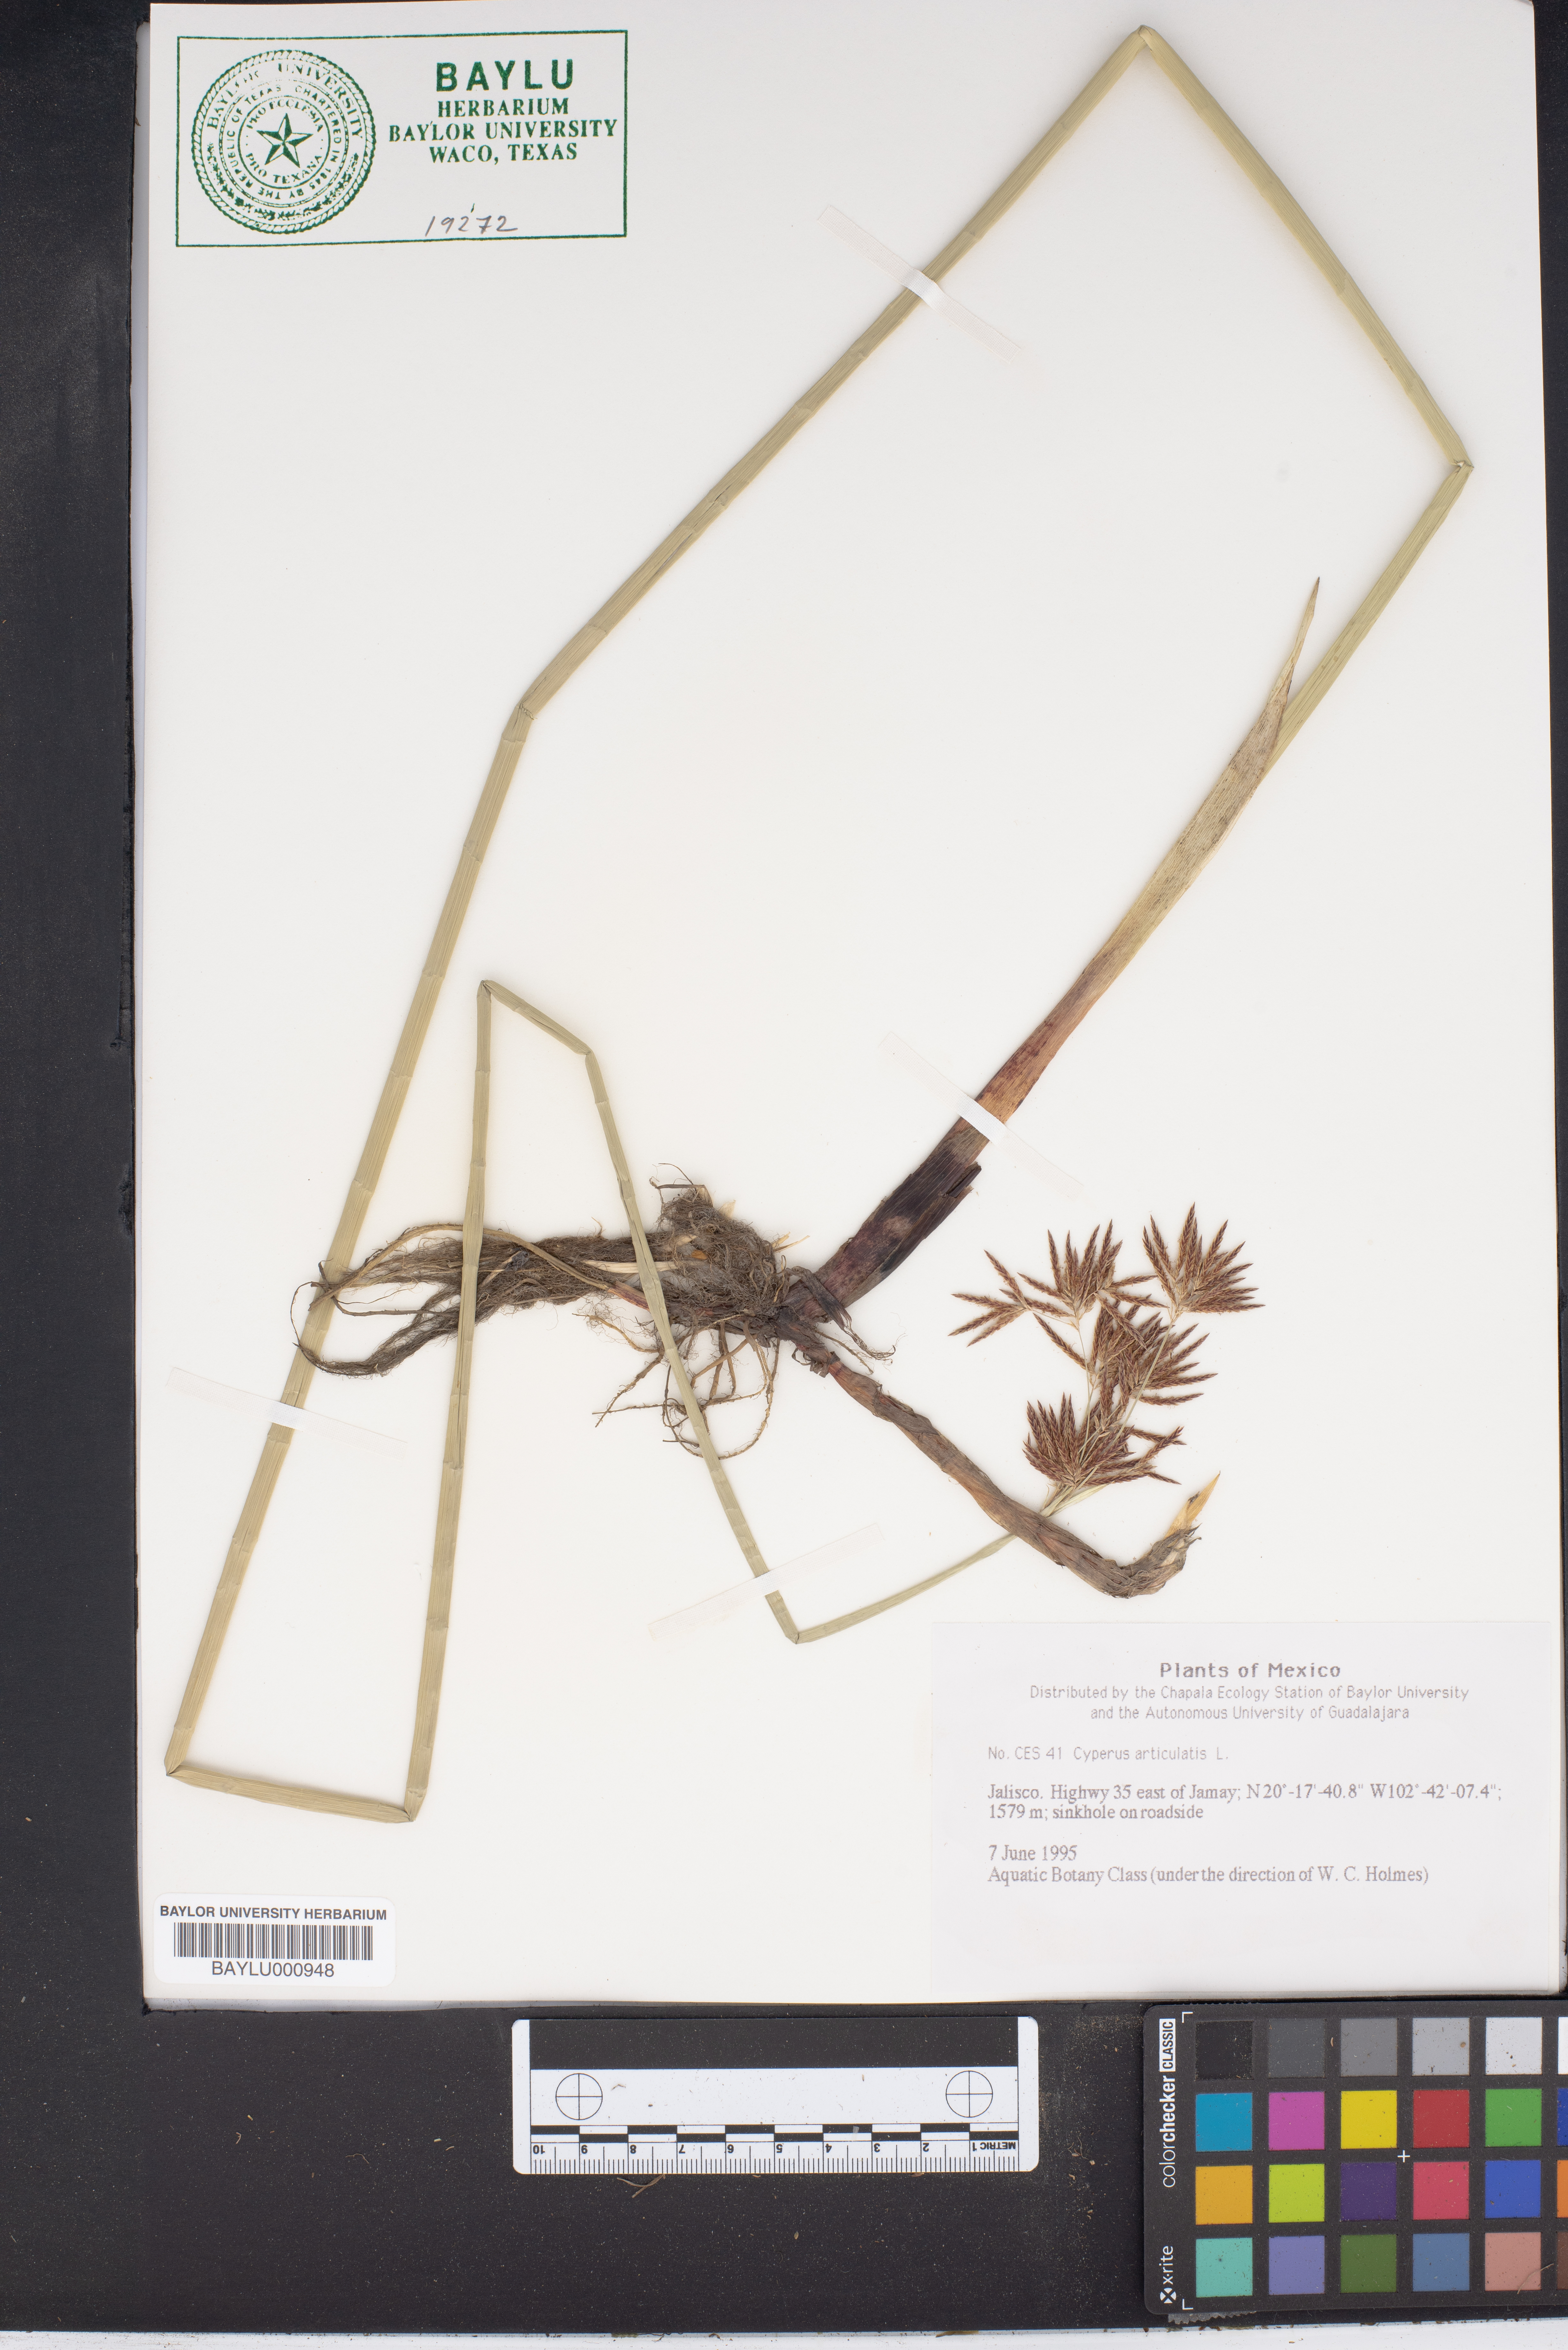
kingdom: Plantae
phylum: Tracheophyta
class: Liliopsida
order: Poales
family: Cyperaceae
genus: Cyperus
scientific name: Cyperus articulatus
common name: Jointed flatsedge
